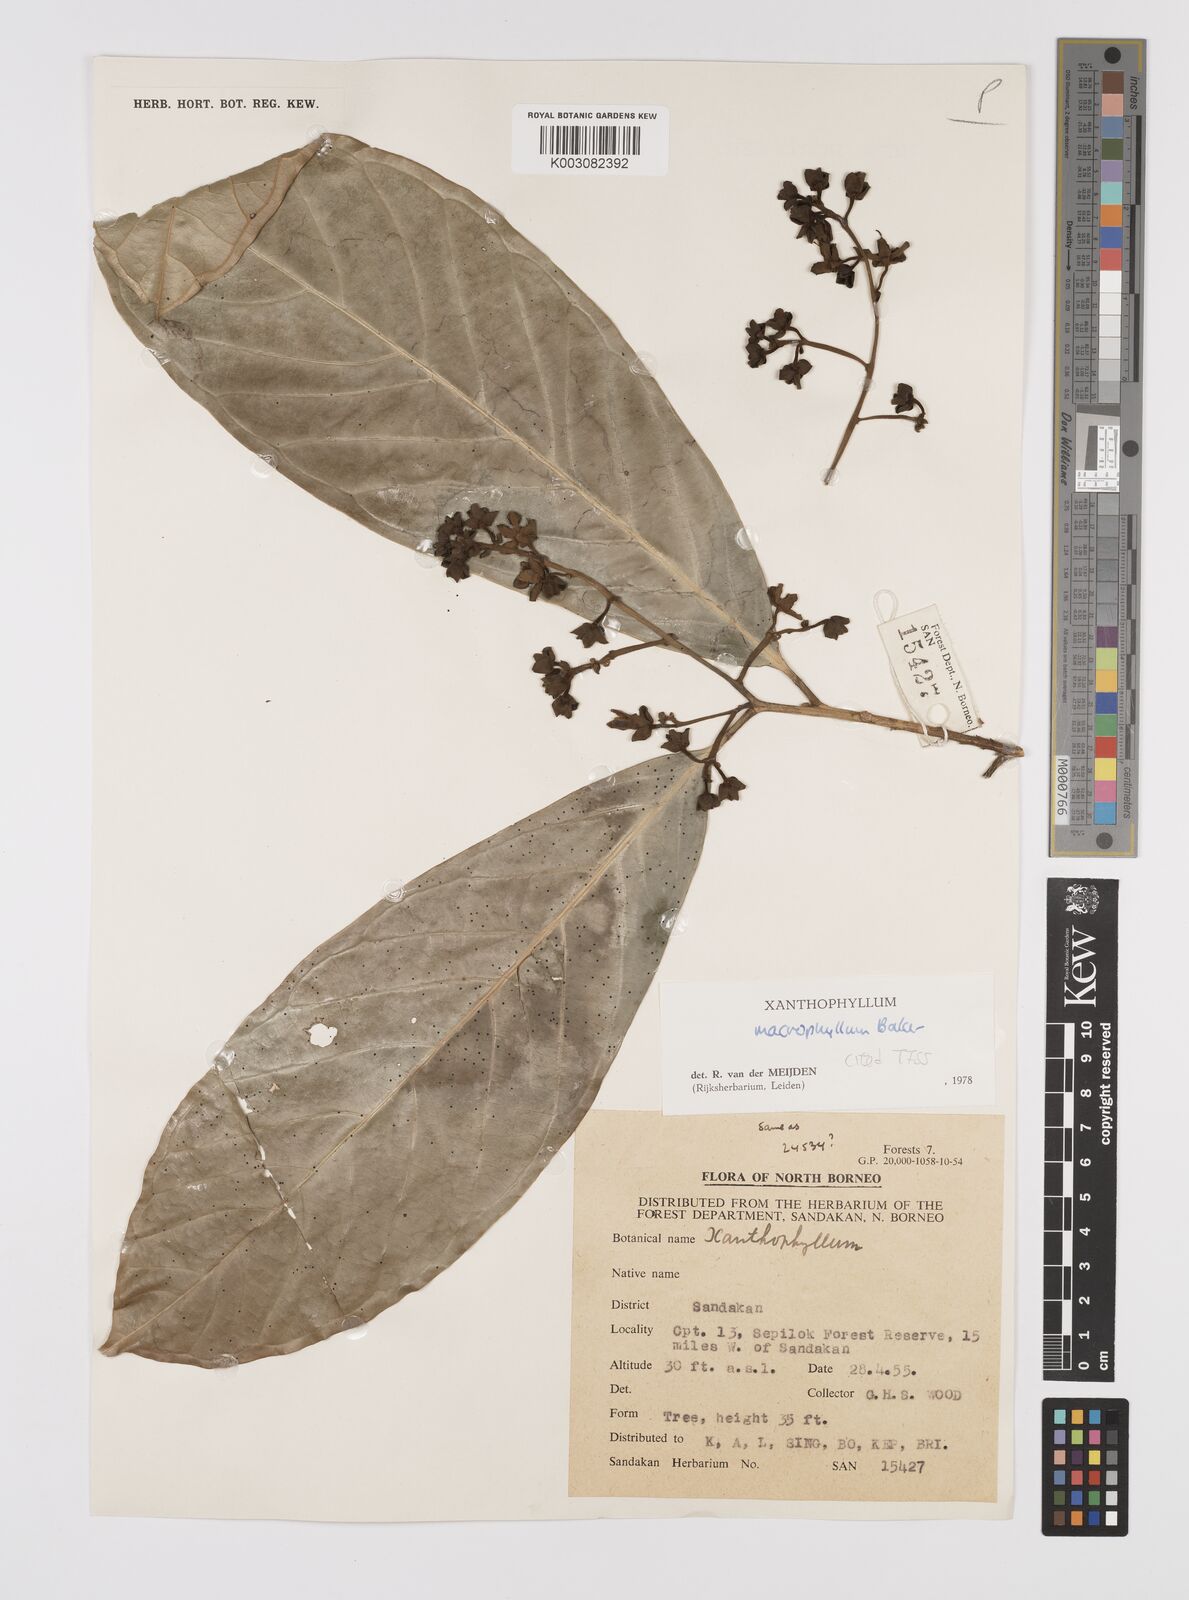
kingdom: Plantae
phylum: Tracheophyta
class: Magnoliopsida
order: Fabales
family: Polygalaceae
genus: Xanthophyllum
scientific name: Xanthophyllum macrophyllum
